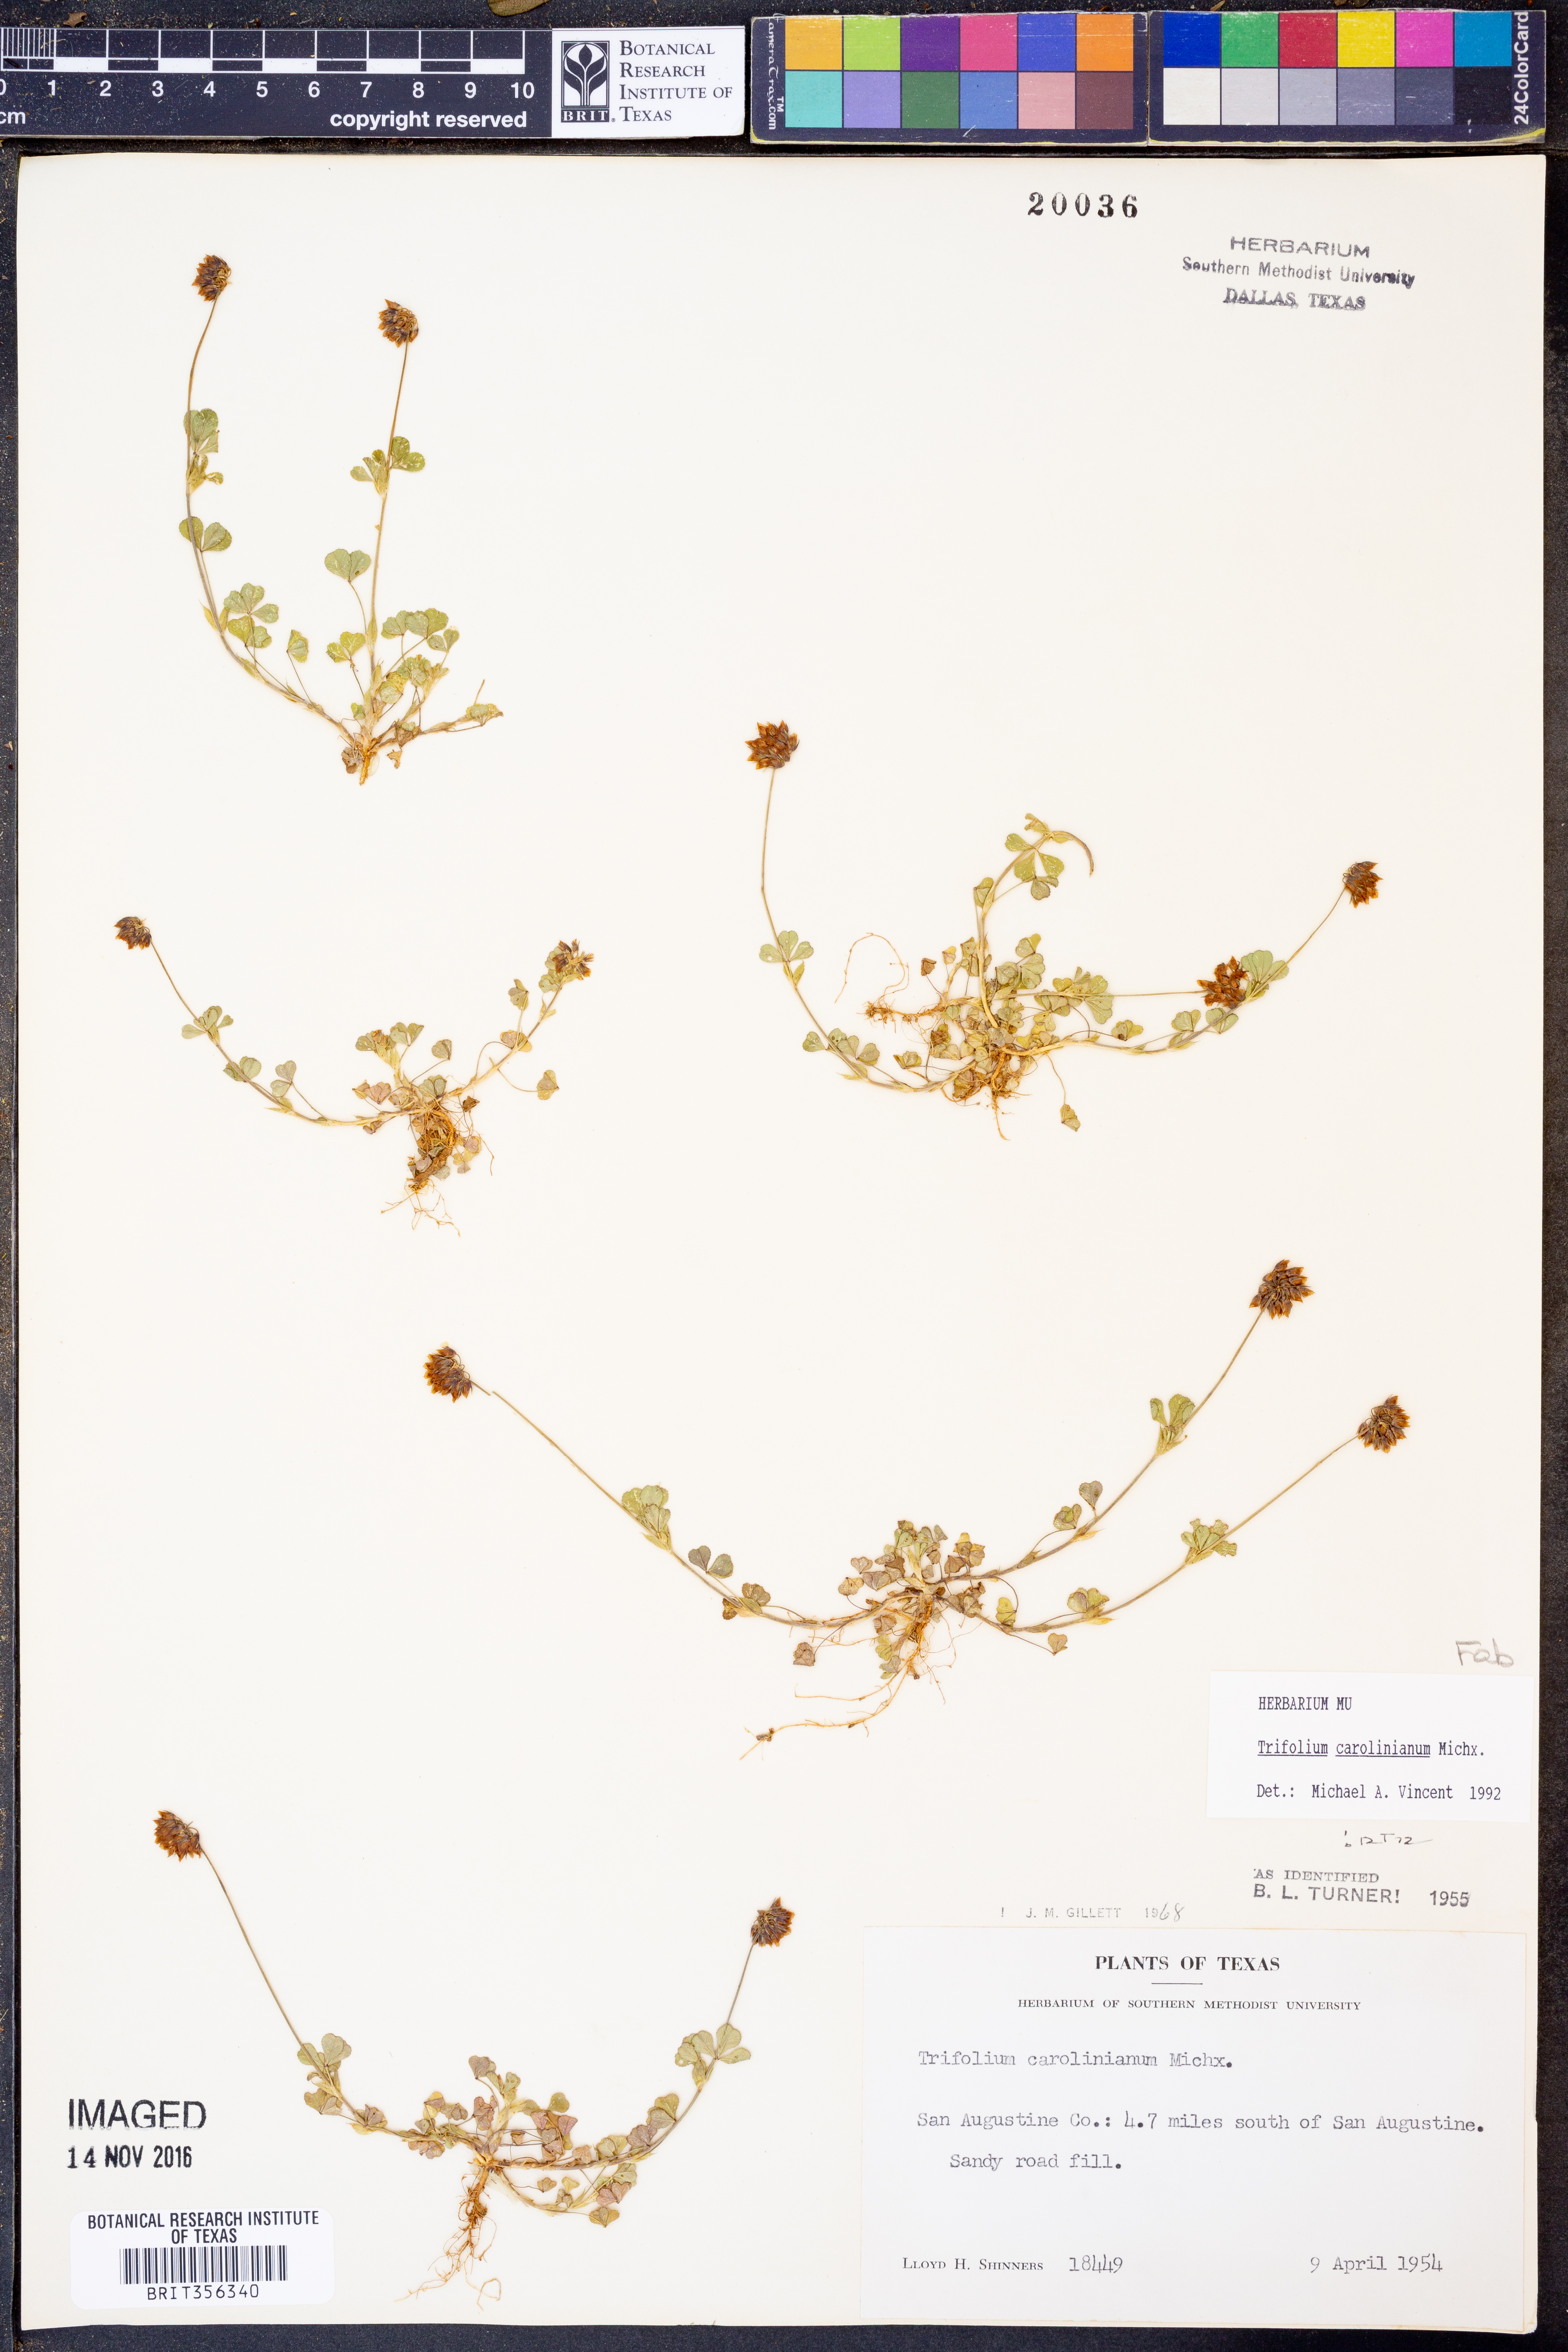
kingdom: Plantae
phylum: Tracheophyta
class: Magnoliopsida
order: Fabales
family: Fabaceae
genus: Trifolium
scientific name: Trifolium carolinianum
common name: Wild white clover
